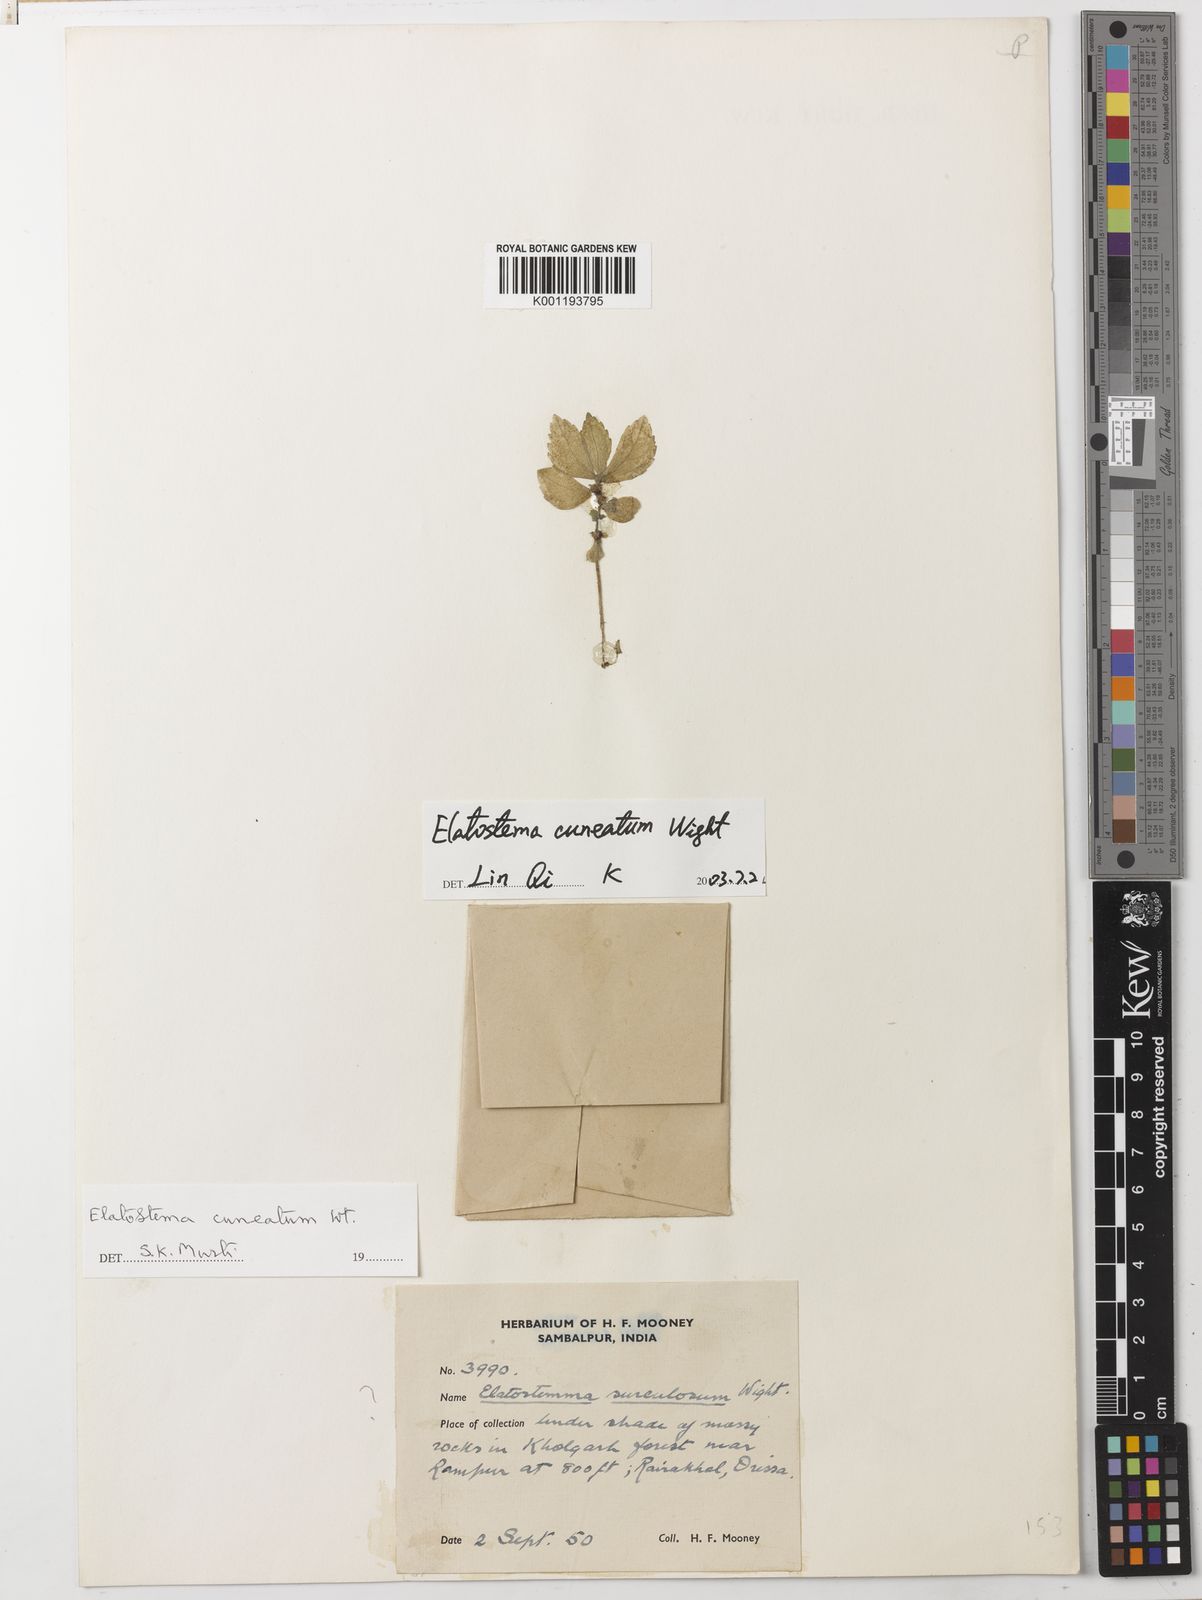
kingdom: Plantae
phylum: Tracheophyta
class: Magnoliopsida
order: Rosales
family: Urticaceae
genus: Elatostema
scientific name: Elatostema cuneatum
